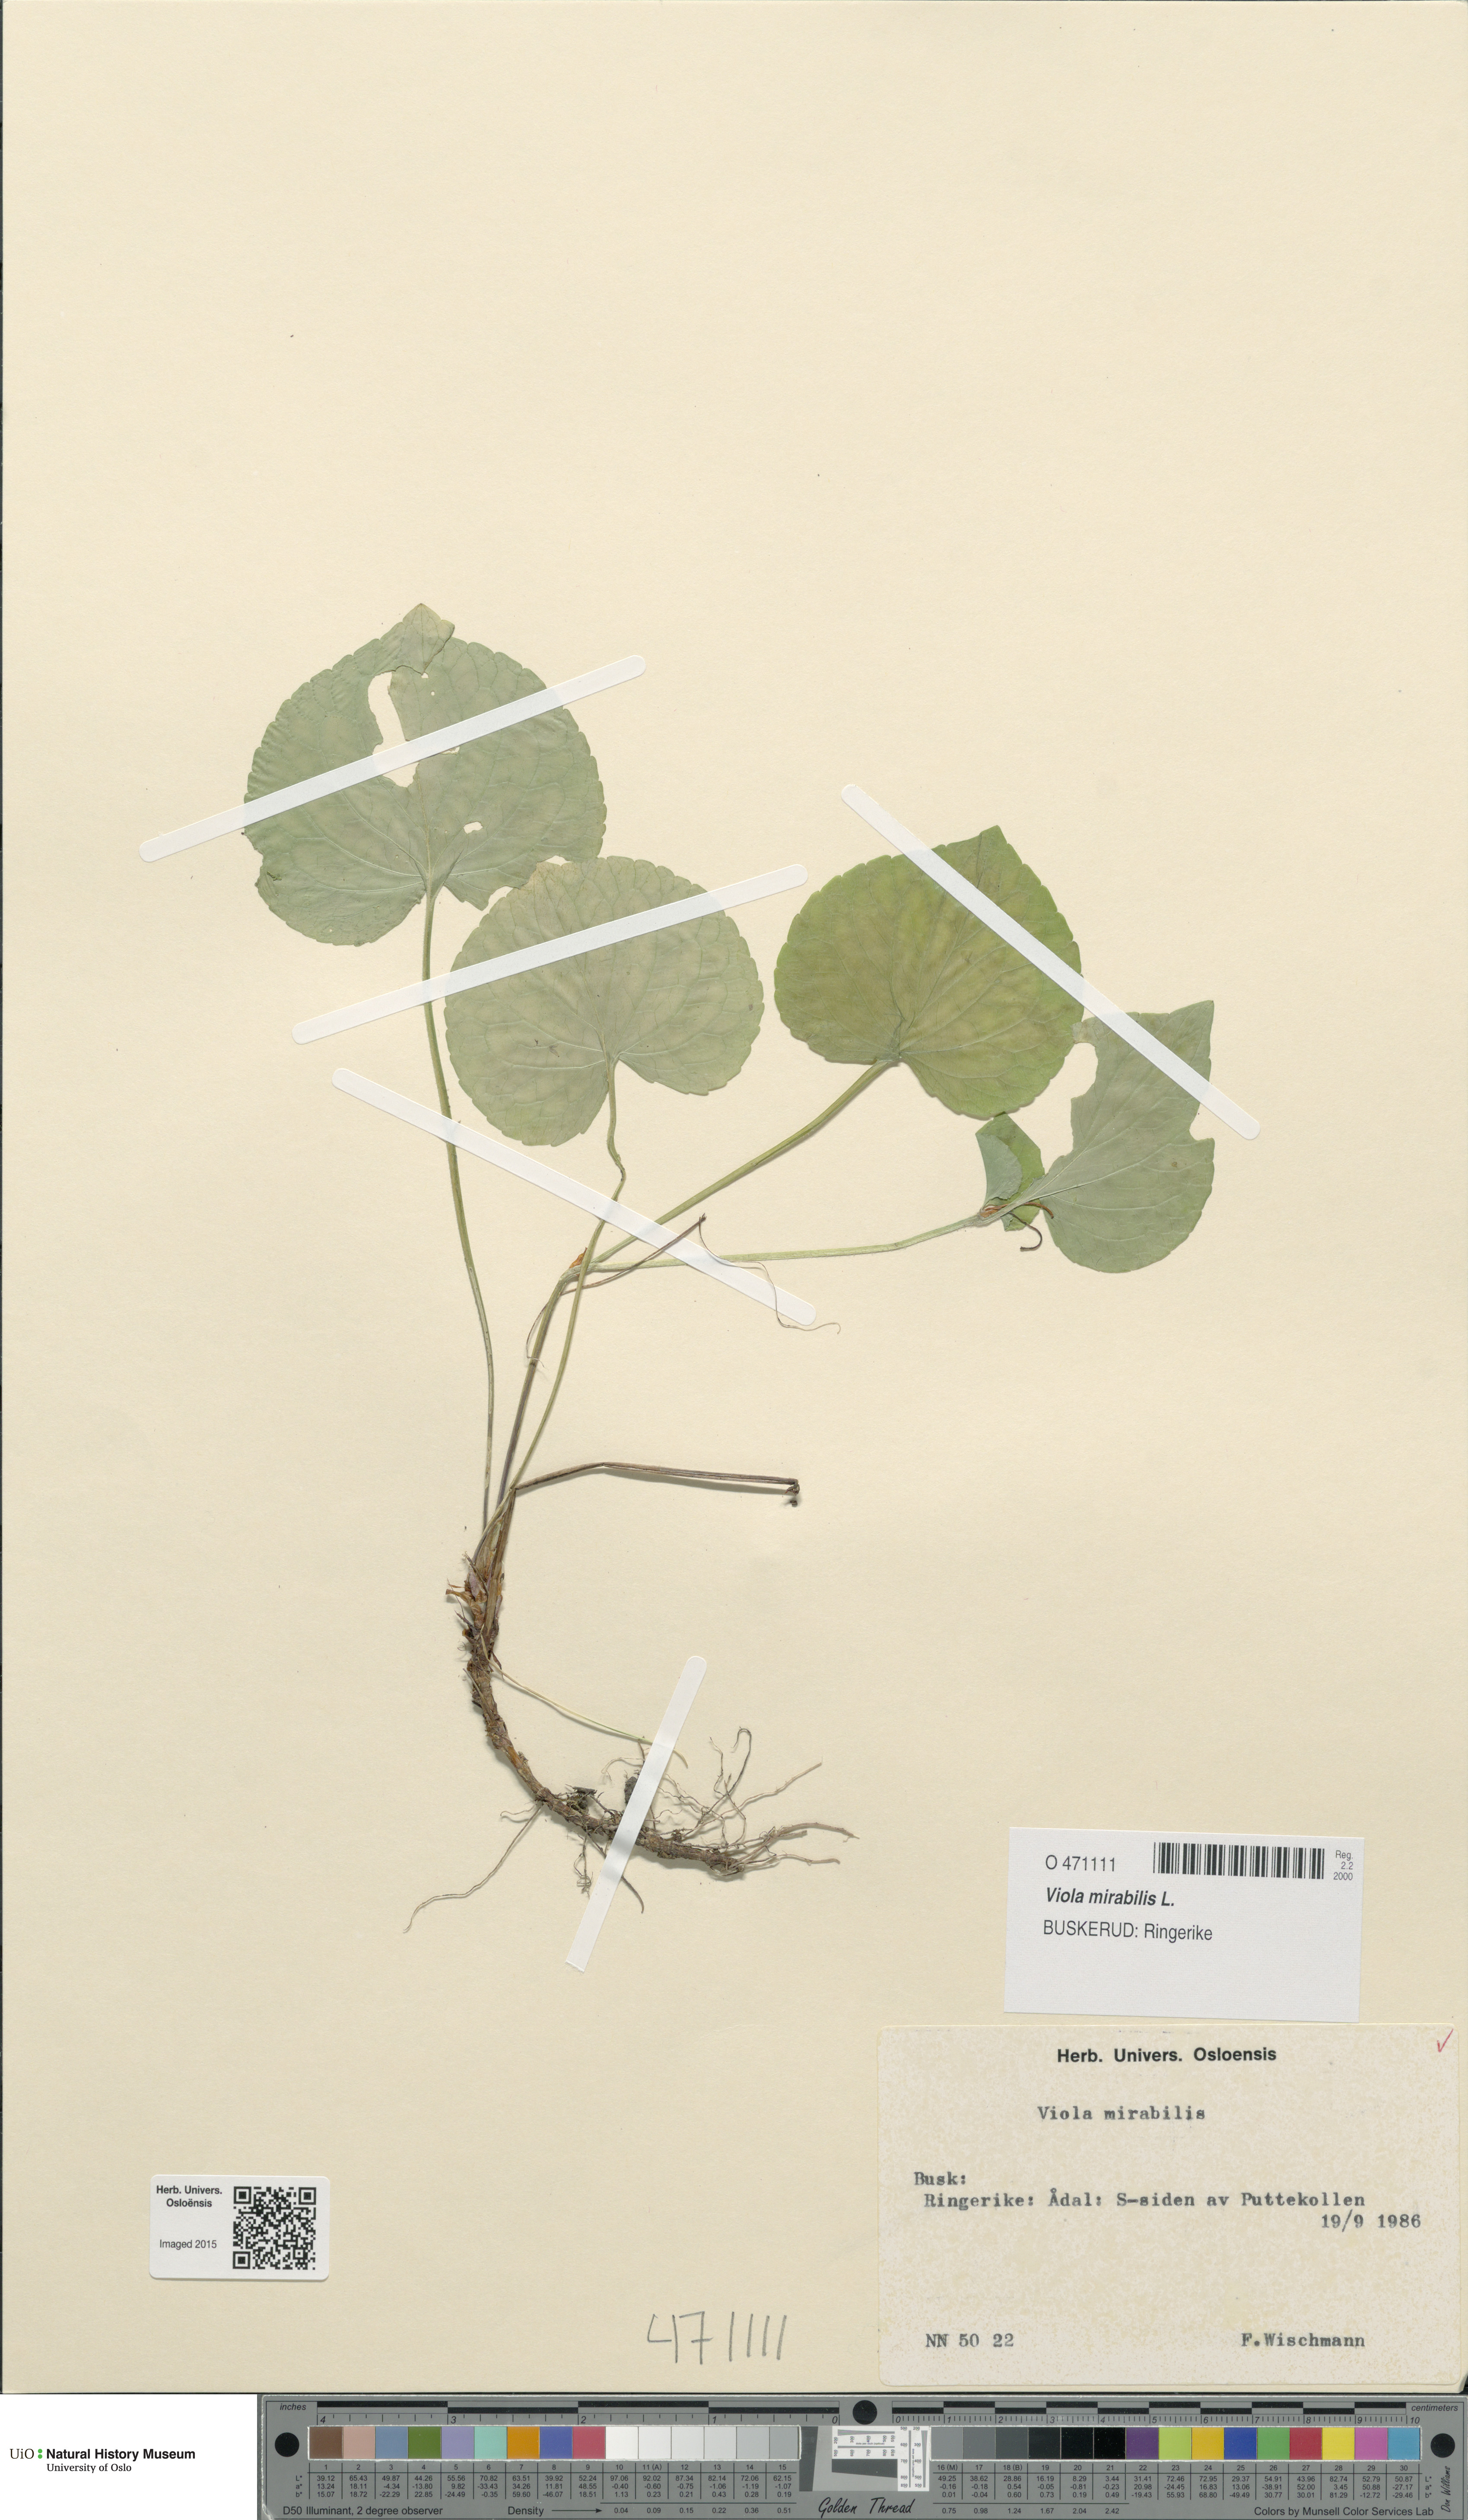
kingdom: Plantae
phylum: Tracheophyta
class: Magnoliopsida
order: Malpighiales
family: Violaceae
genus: Viola
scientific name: Viola mirabilis
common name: Wonder violet
